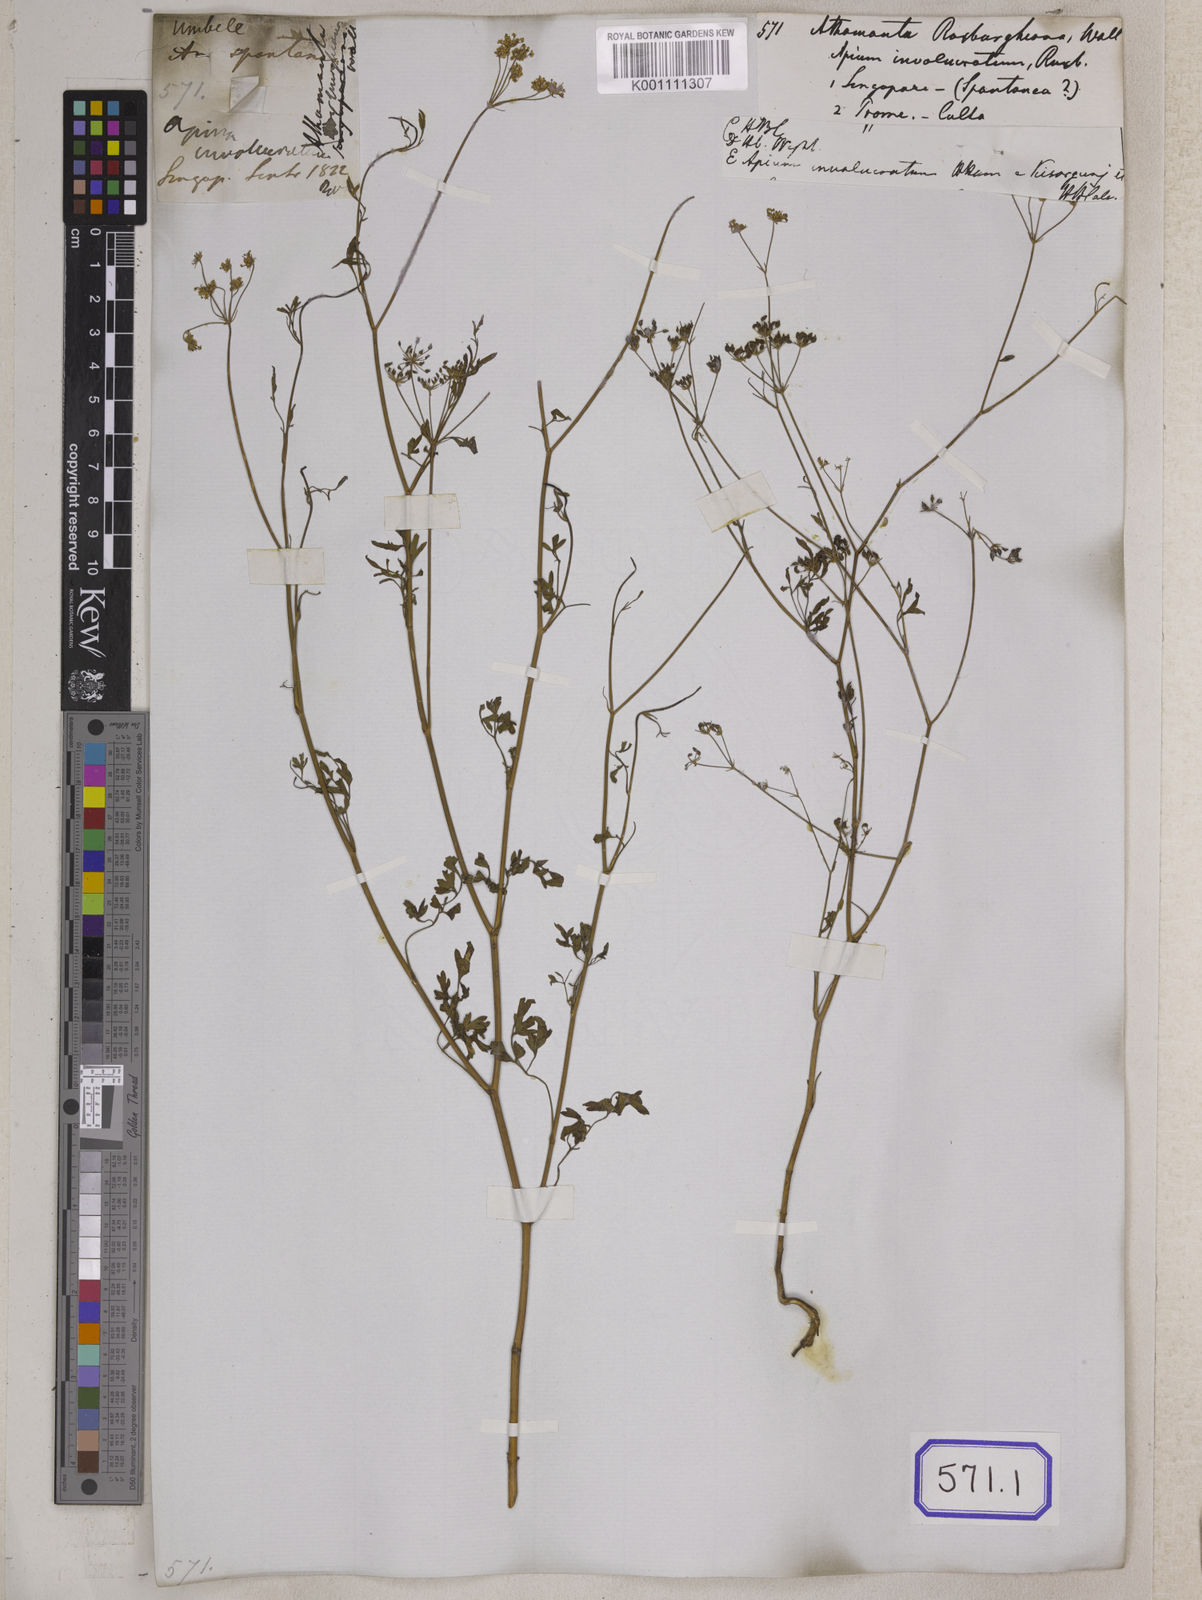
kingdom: Plantae
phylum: Tracheophyta
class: Magnoliopsida
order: Apiales
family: Apiaceae
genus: Psammogeton
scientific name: Psammogeton involucratum
